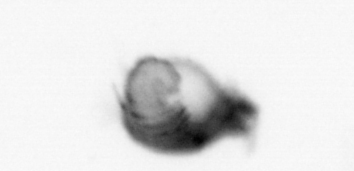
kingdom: Animalia
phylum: Annelida
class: Polychaeta
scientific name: Polychaeta
